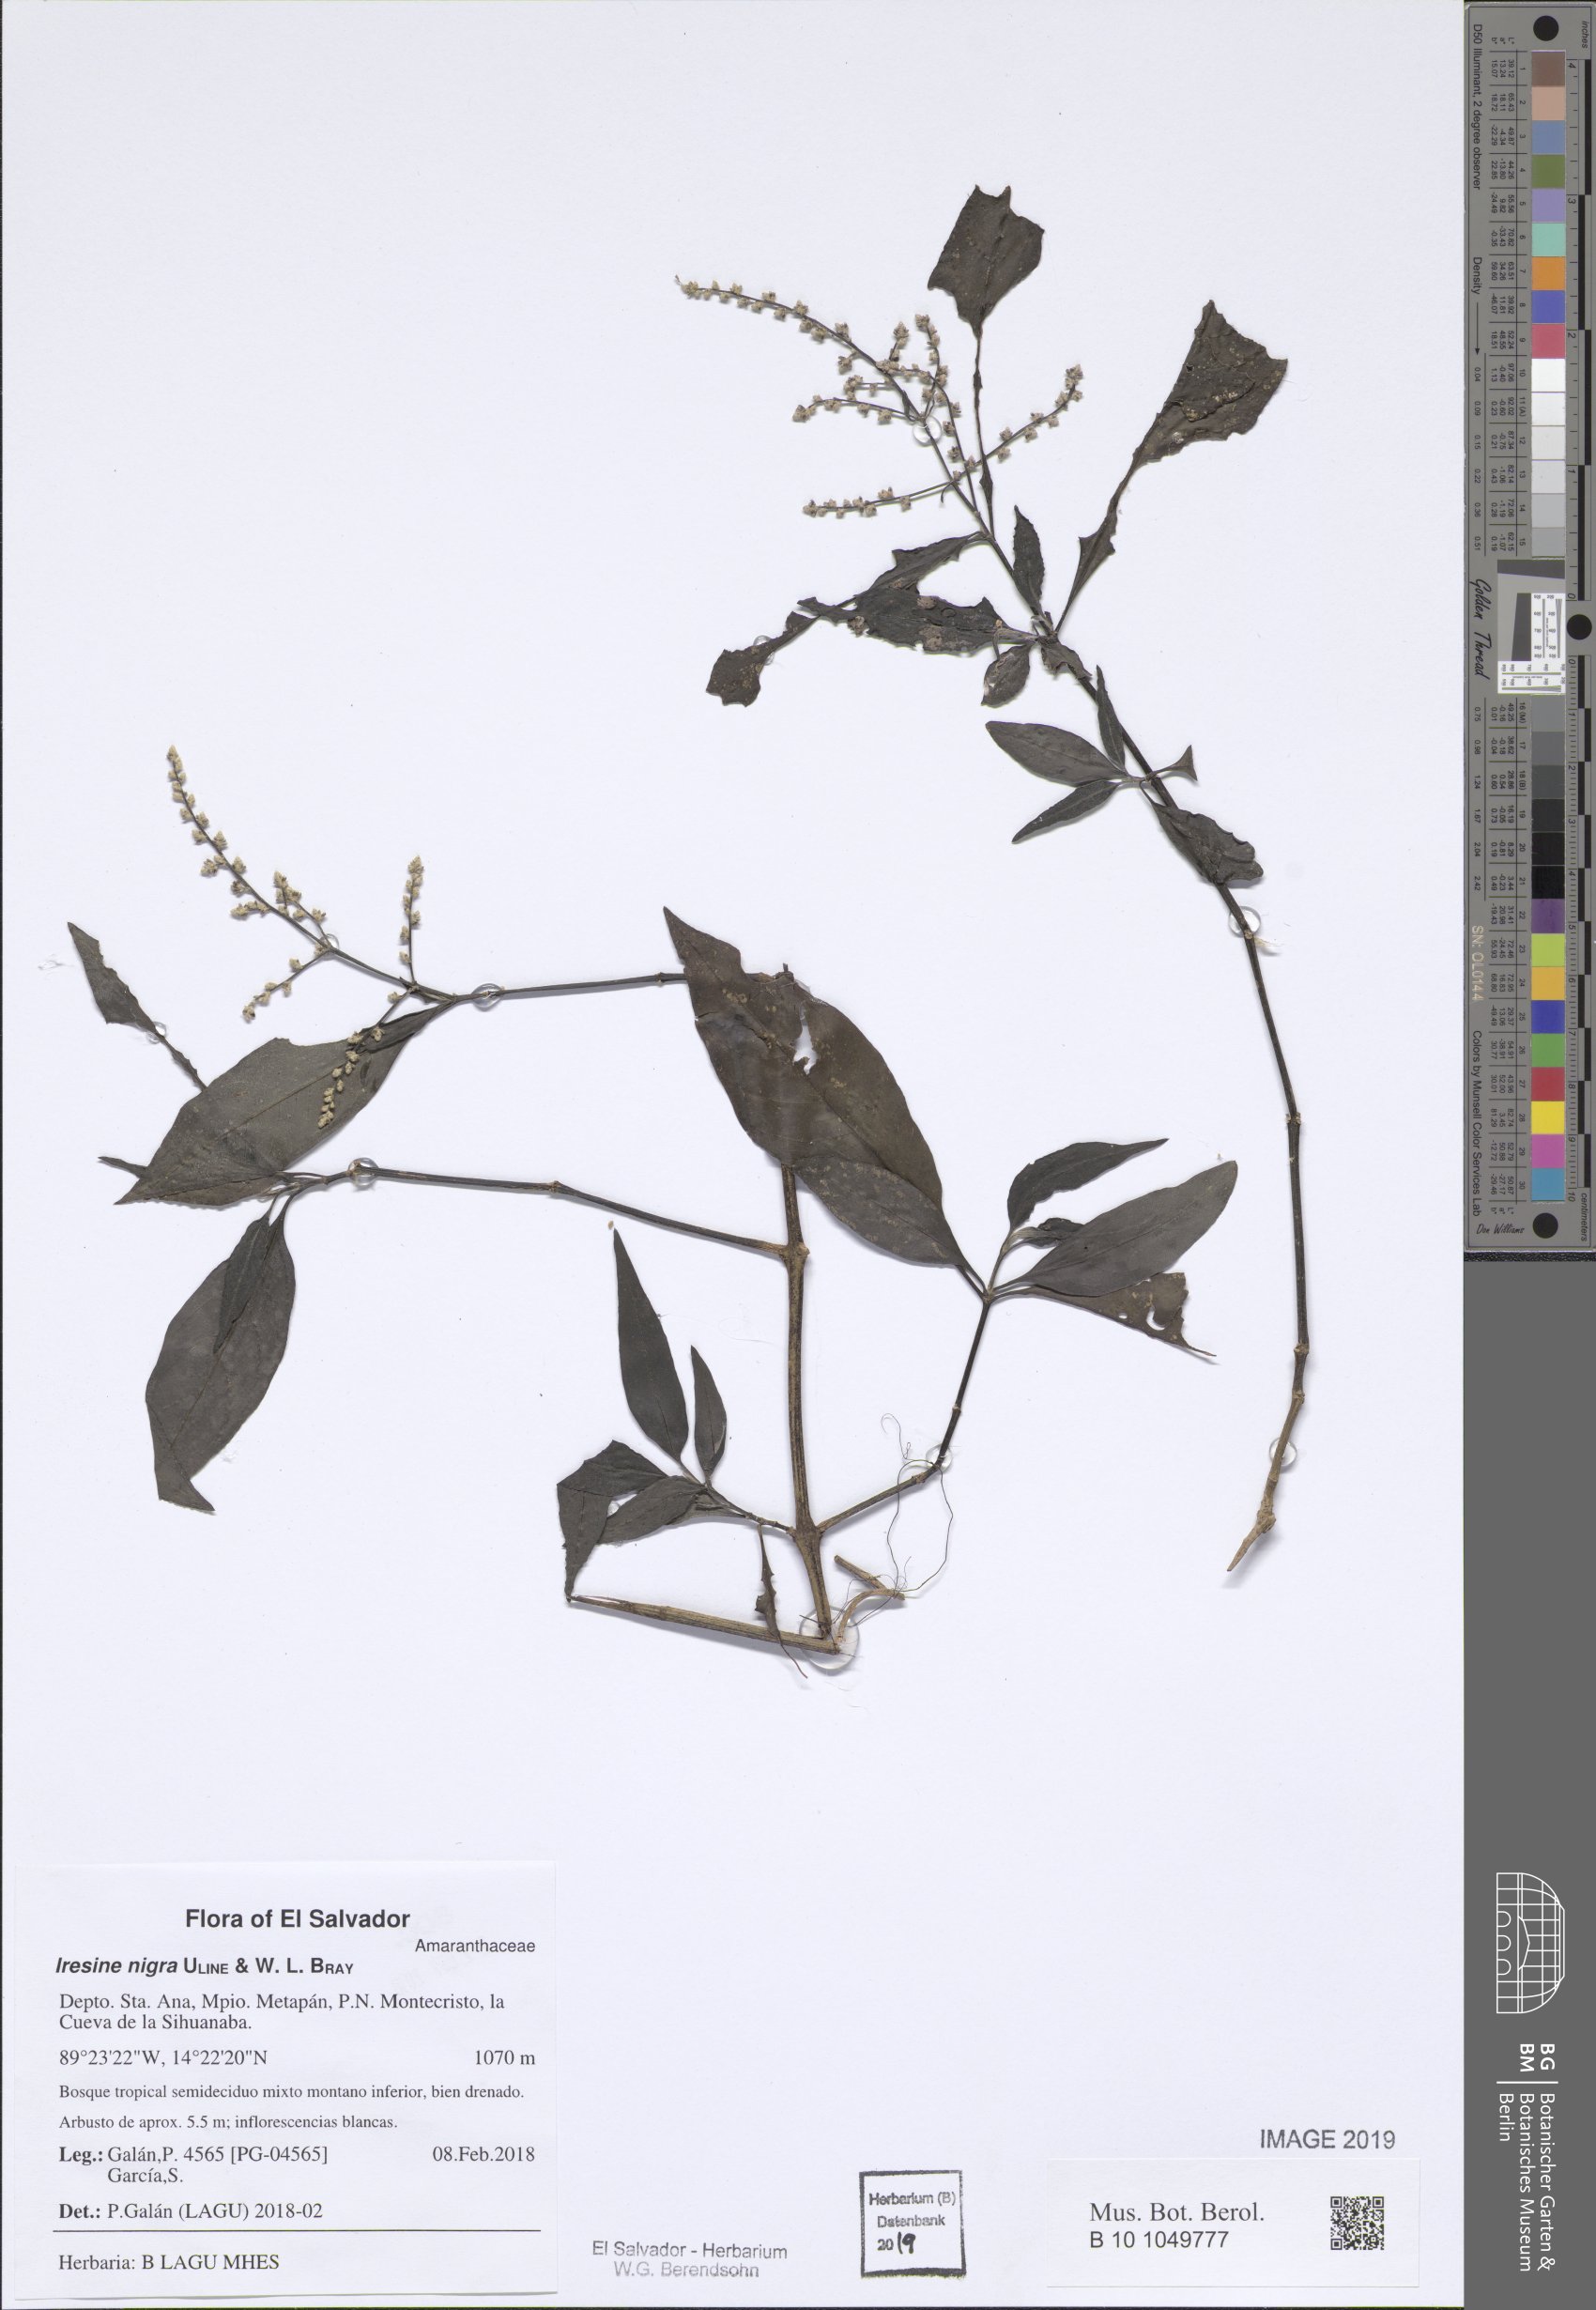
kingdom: Plantae
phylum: Tracheophyta
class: Magnoliopsida
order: Caryophyllales
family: Amaranthaceae
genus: Iresine
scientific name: Iresine nigra
